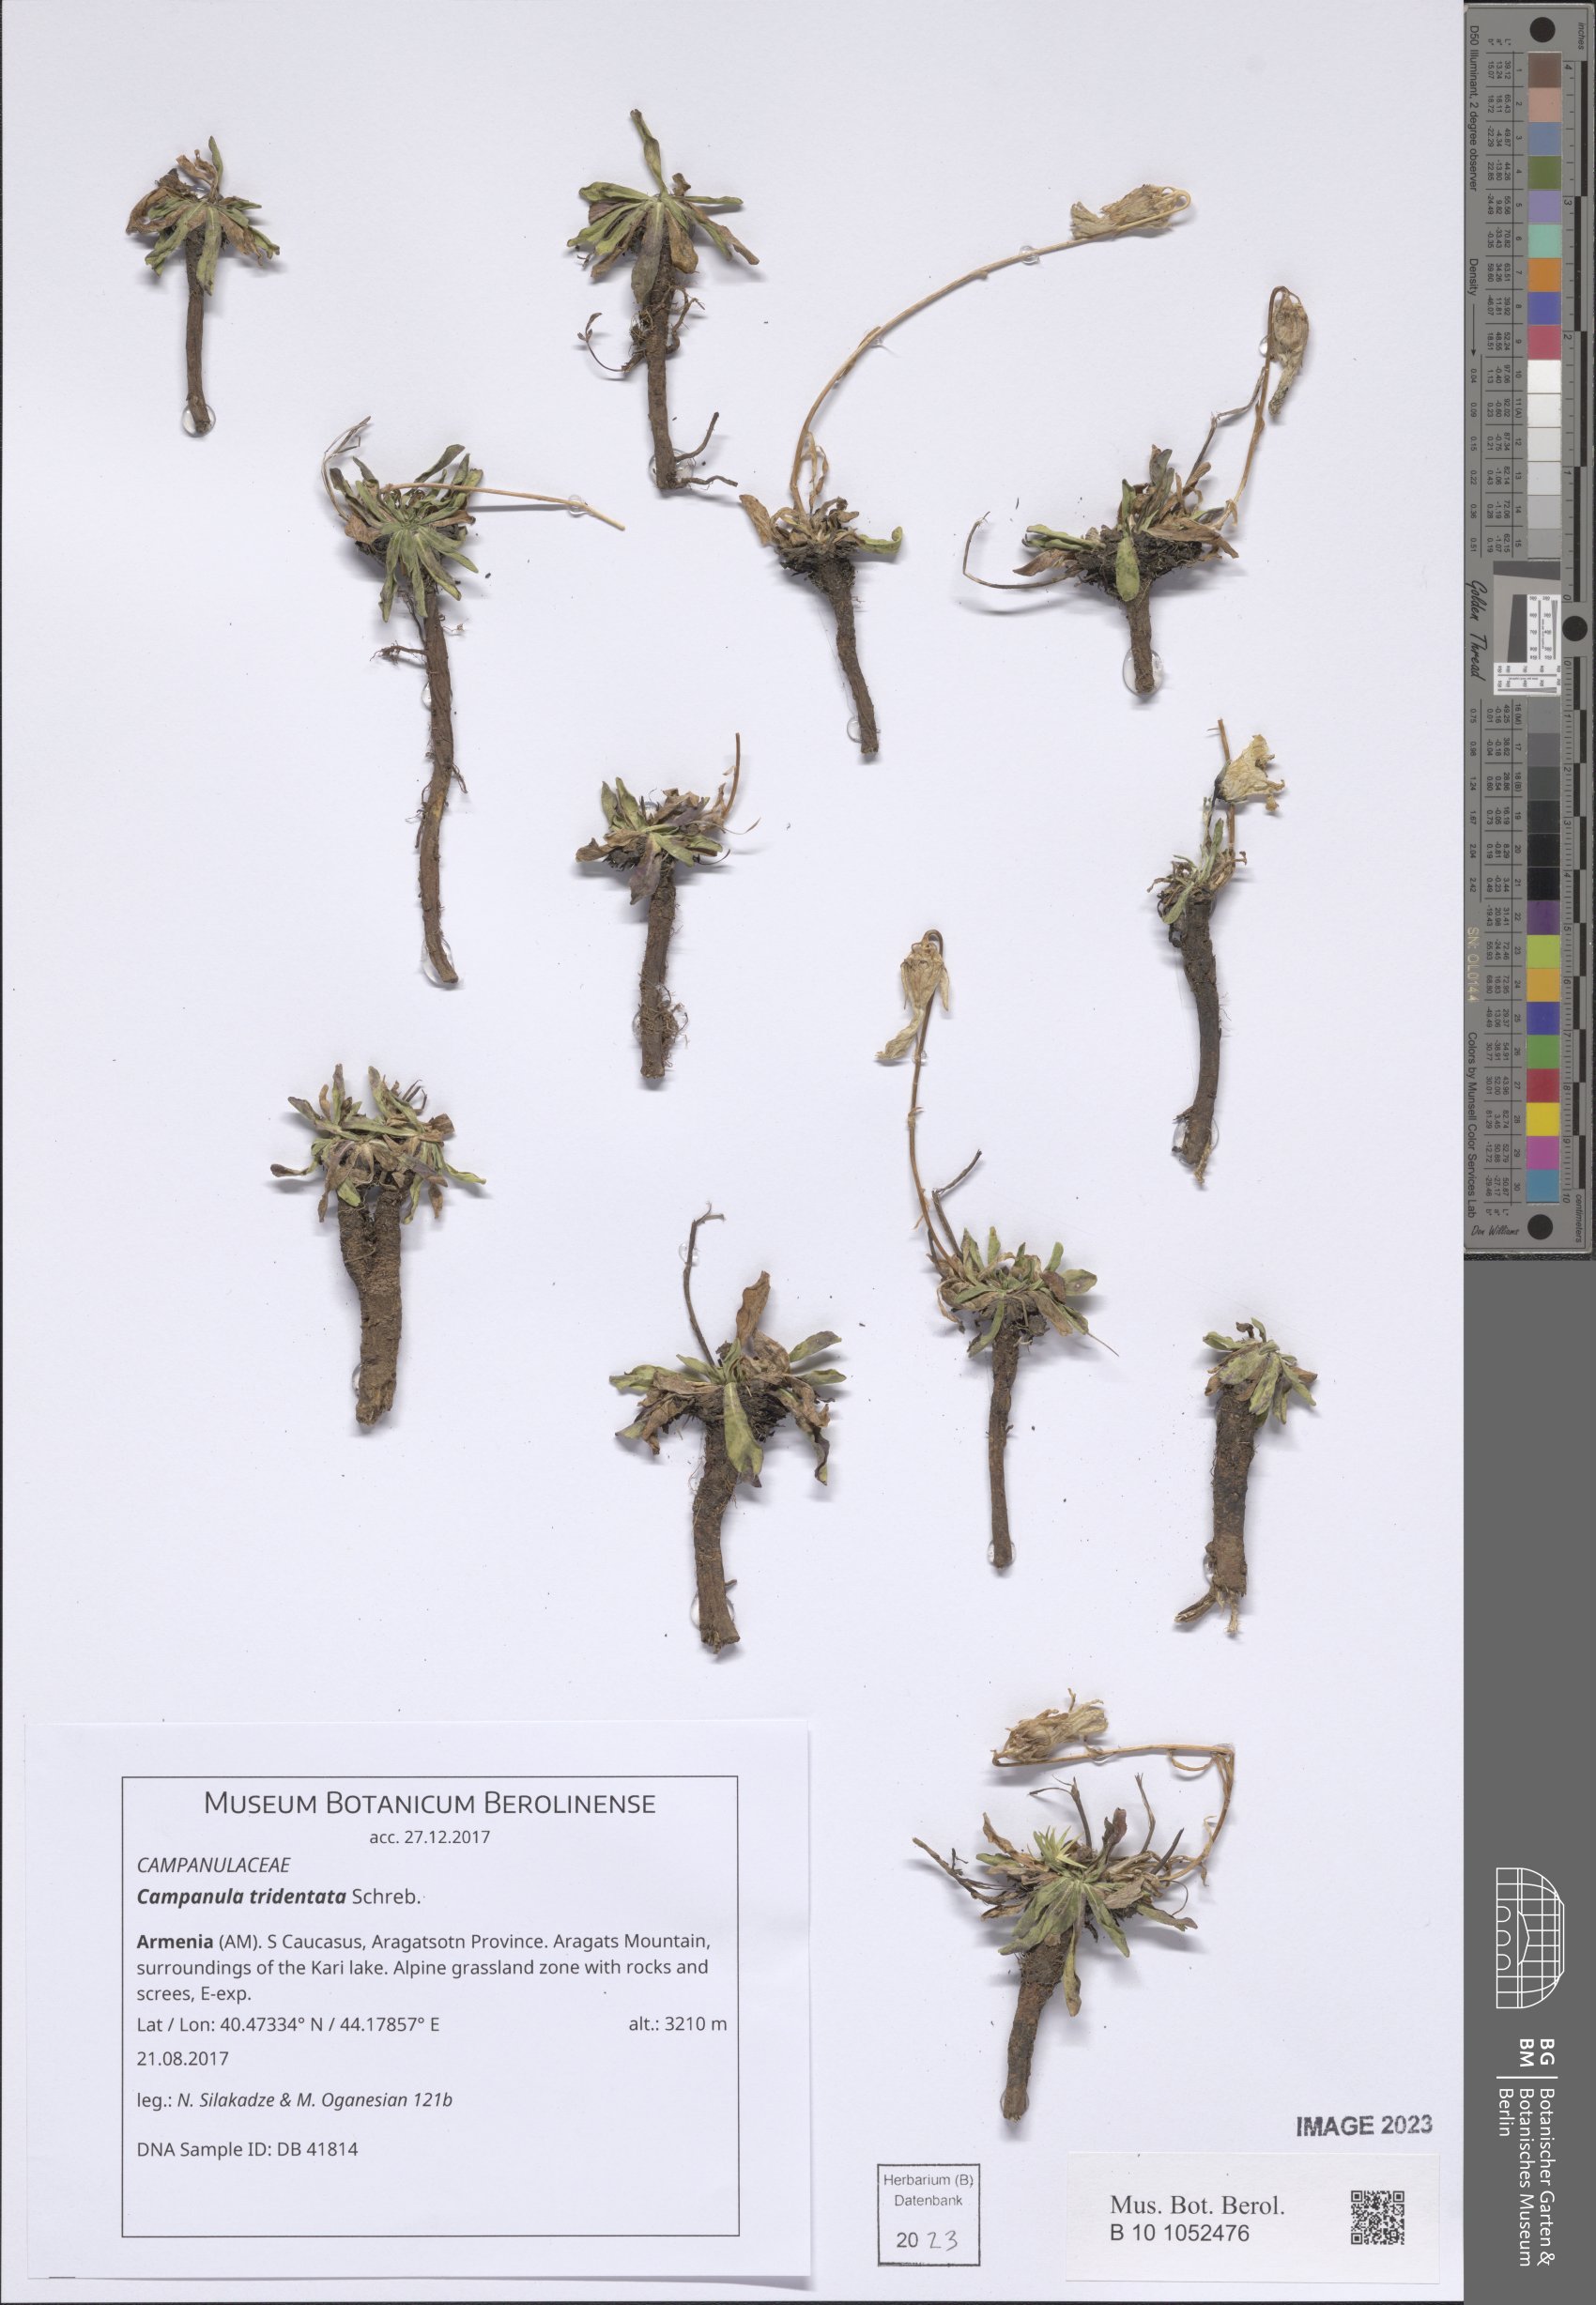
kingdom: Plantae
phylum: Tracheophyta
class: Magnoliopsida
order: Asterales
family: Campanulaceae
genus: Campanula
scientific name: Campanula tridentata
